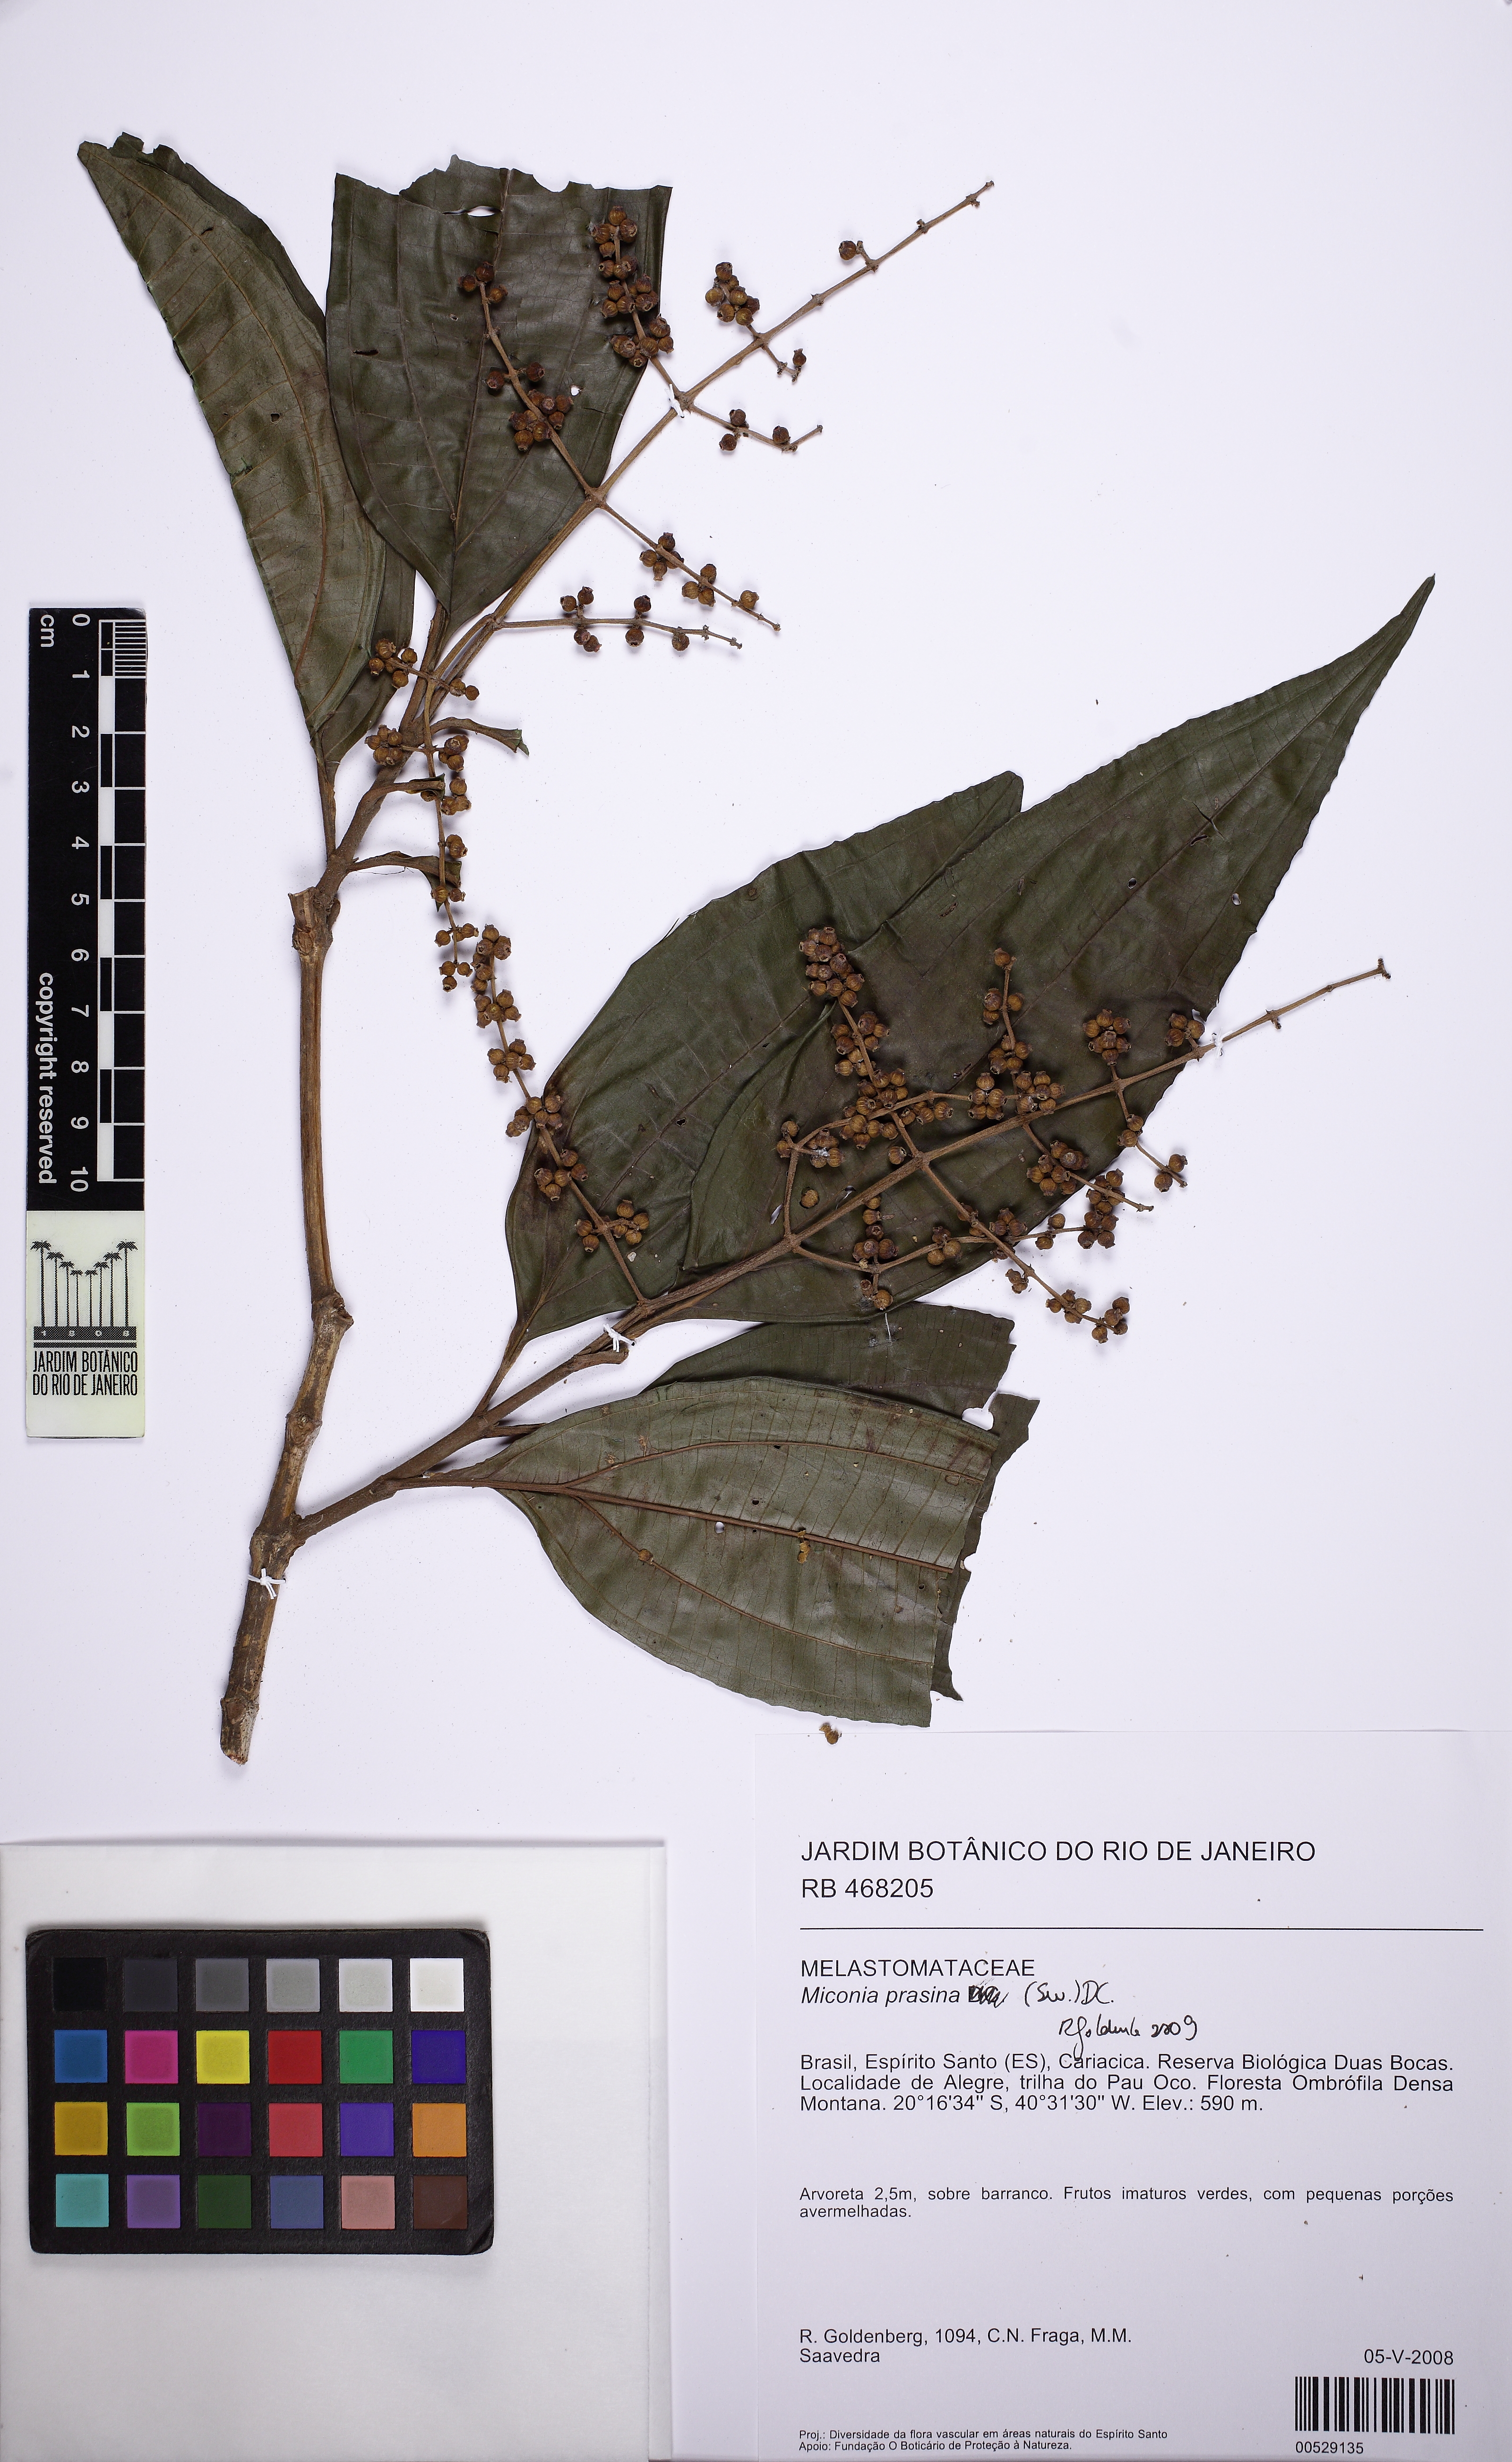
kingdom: Plantae
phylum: Tracheophyta
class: Magnoliopsida
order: Myrtales
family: Melastomataceae
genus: Miconia
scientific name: Miconia prasina
